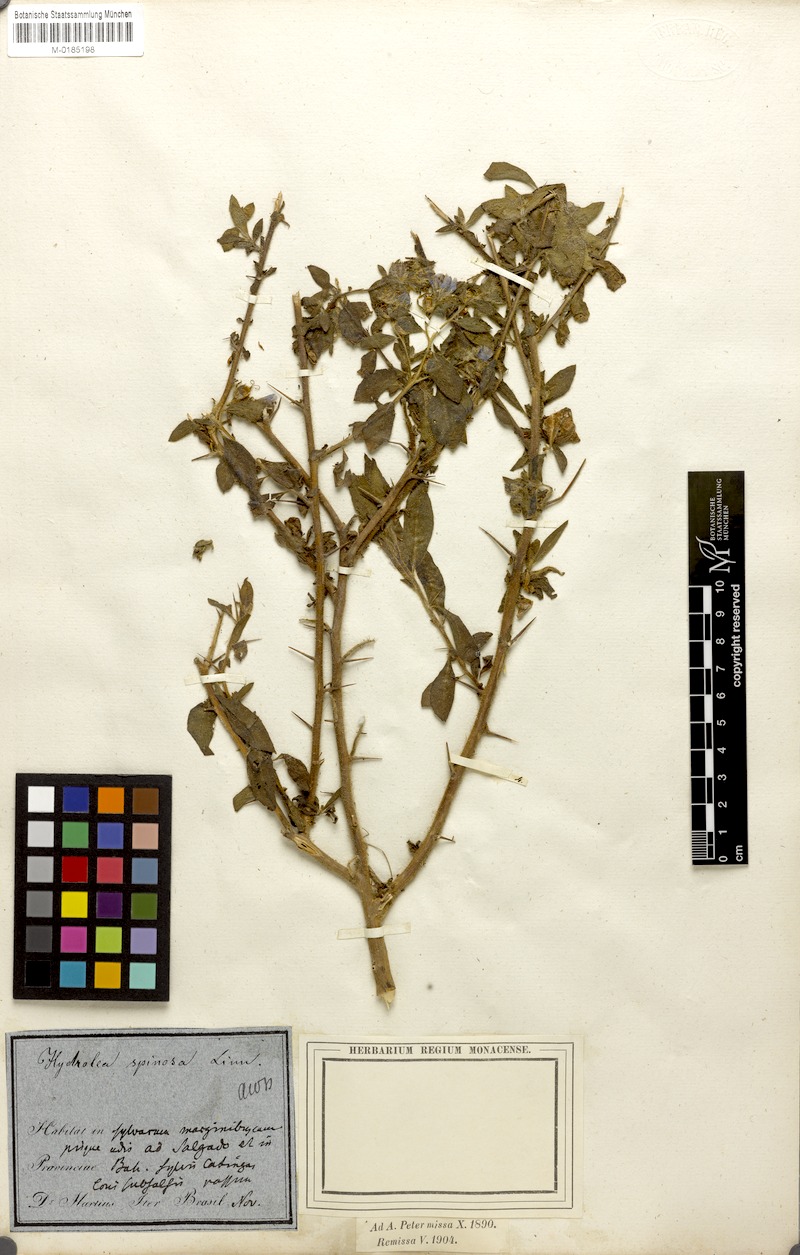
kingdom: Plantae
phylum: Tracheophyta
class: Magnoliopsida
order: Solanales
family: Hydroleaceae
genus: Hydrolea
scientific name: Hydrolea spinosa
